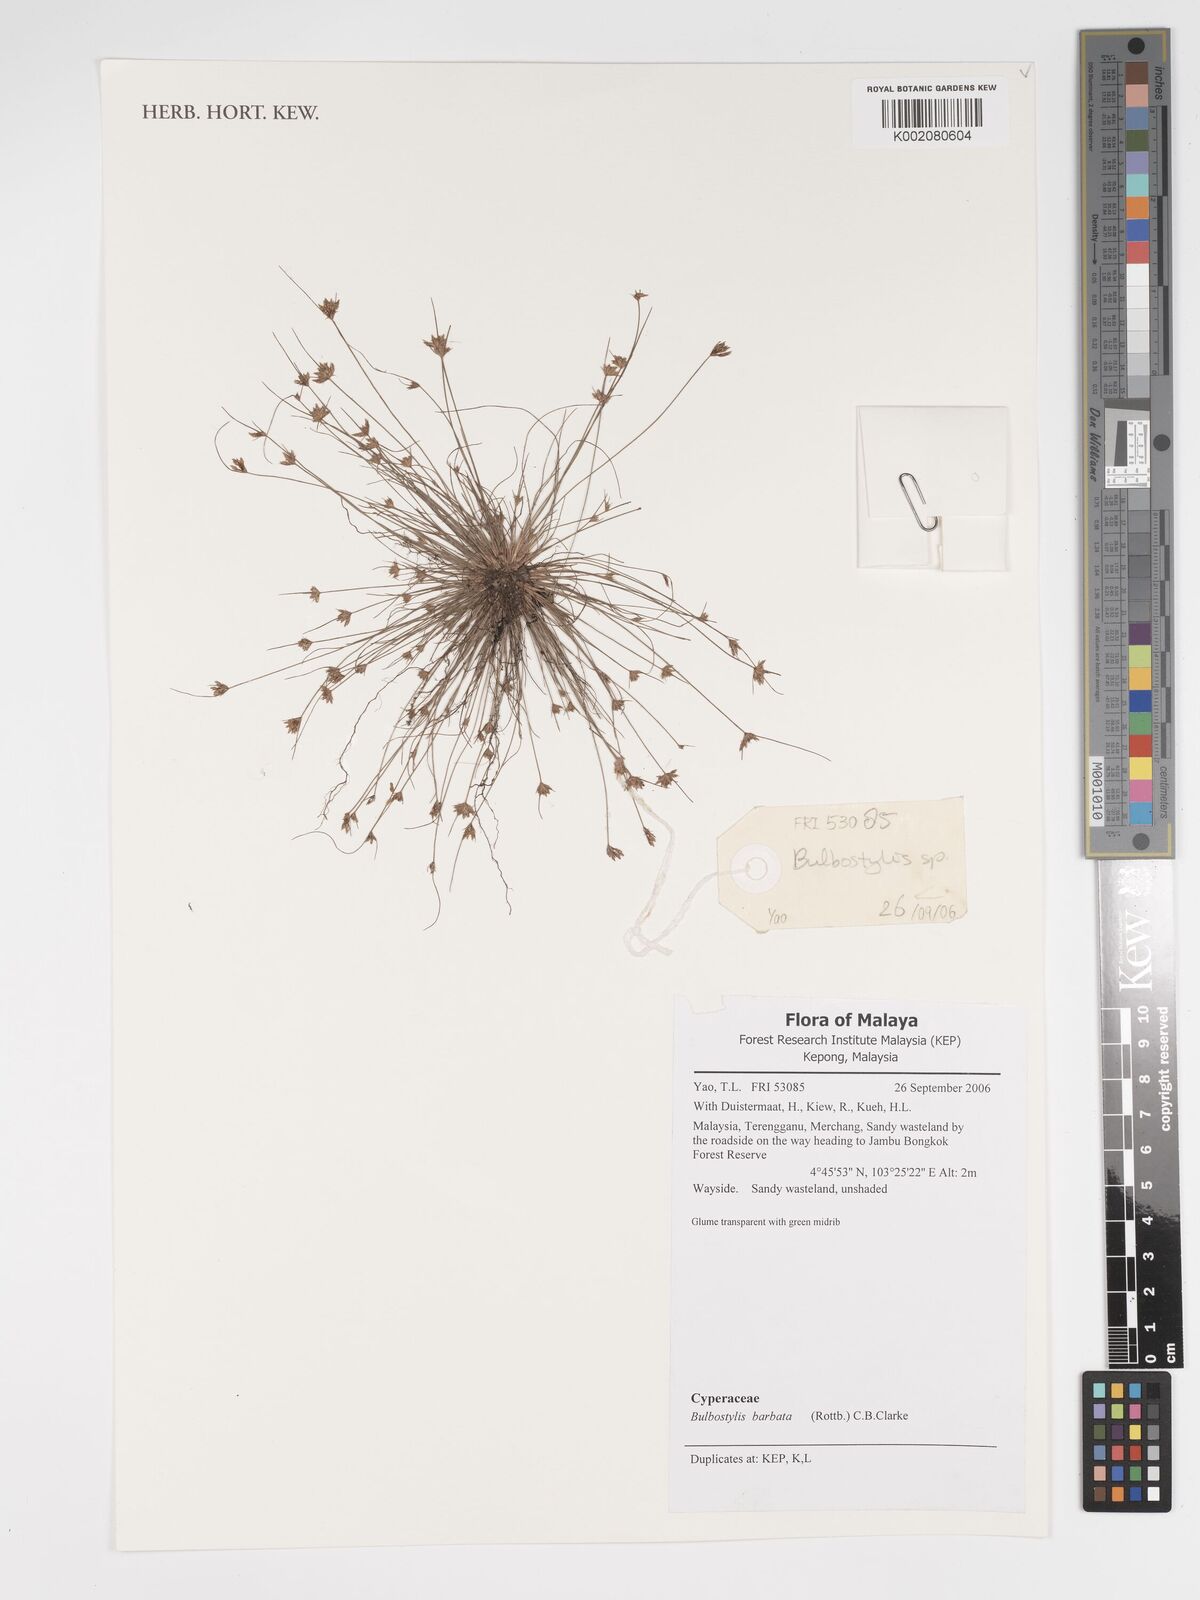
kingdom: Plantae
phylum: Tracheophyta
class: Liliopsida
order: Poales
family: Cyperaceae
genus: Bulbostylis
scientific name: Bulbostylis barbata
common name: Watergrass
